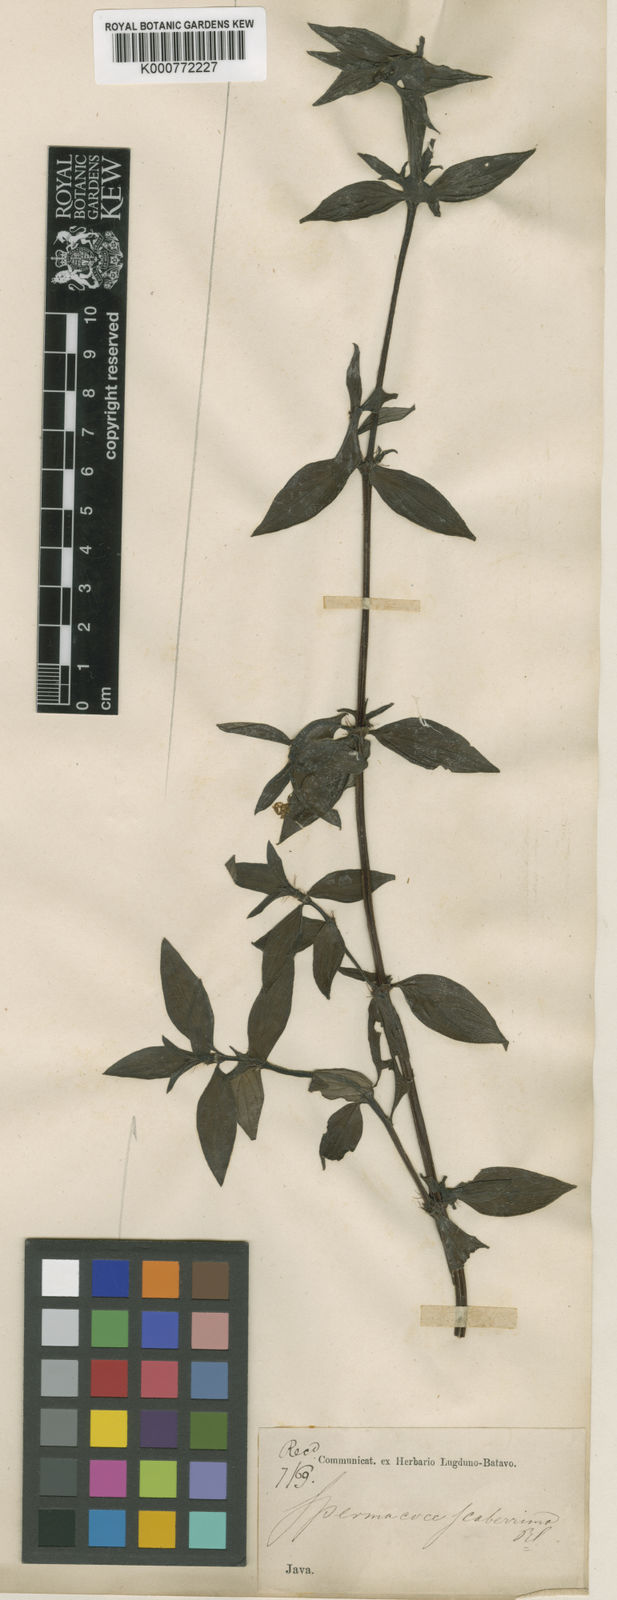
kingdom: Plantae
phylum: Tracheophyta
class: Magnoliopsida
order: Gentianales
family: Rubiaceae
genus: Hexasepalum
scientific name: Hexasepalum sarmentosum
